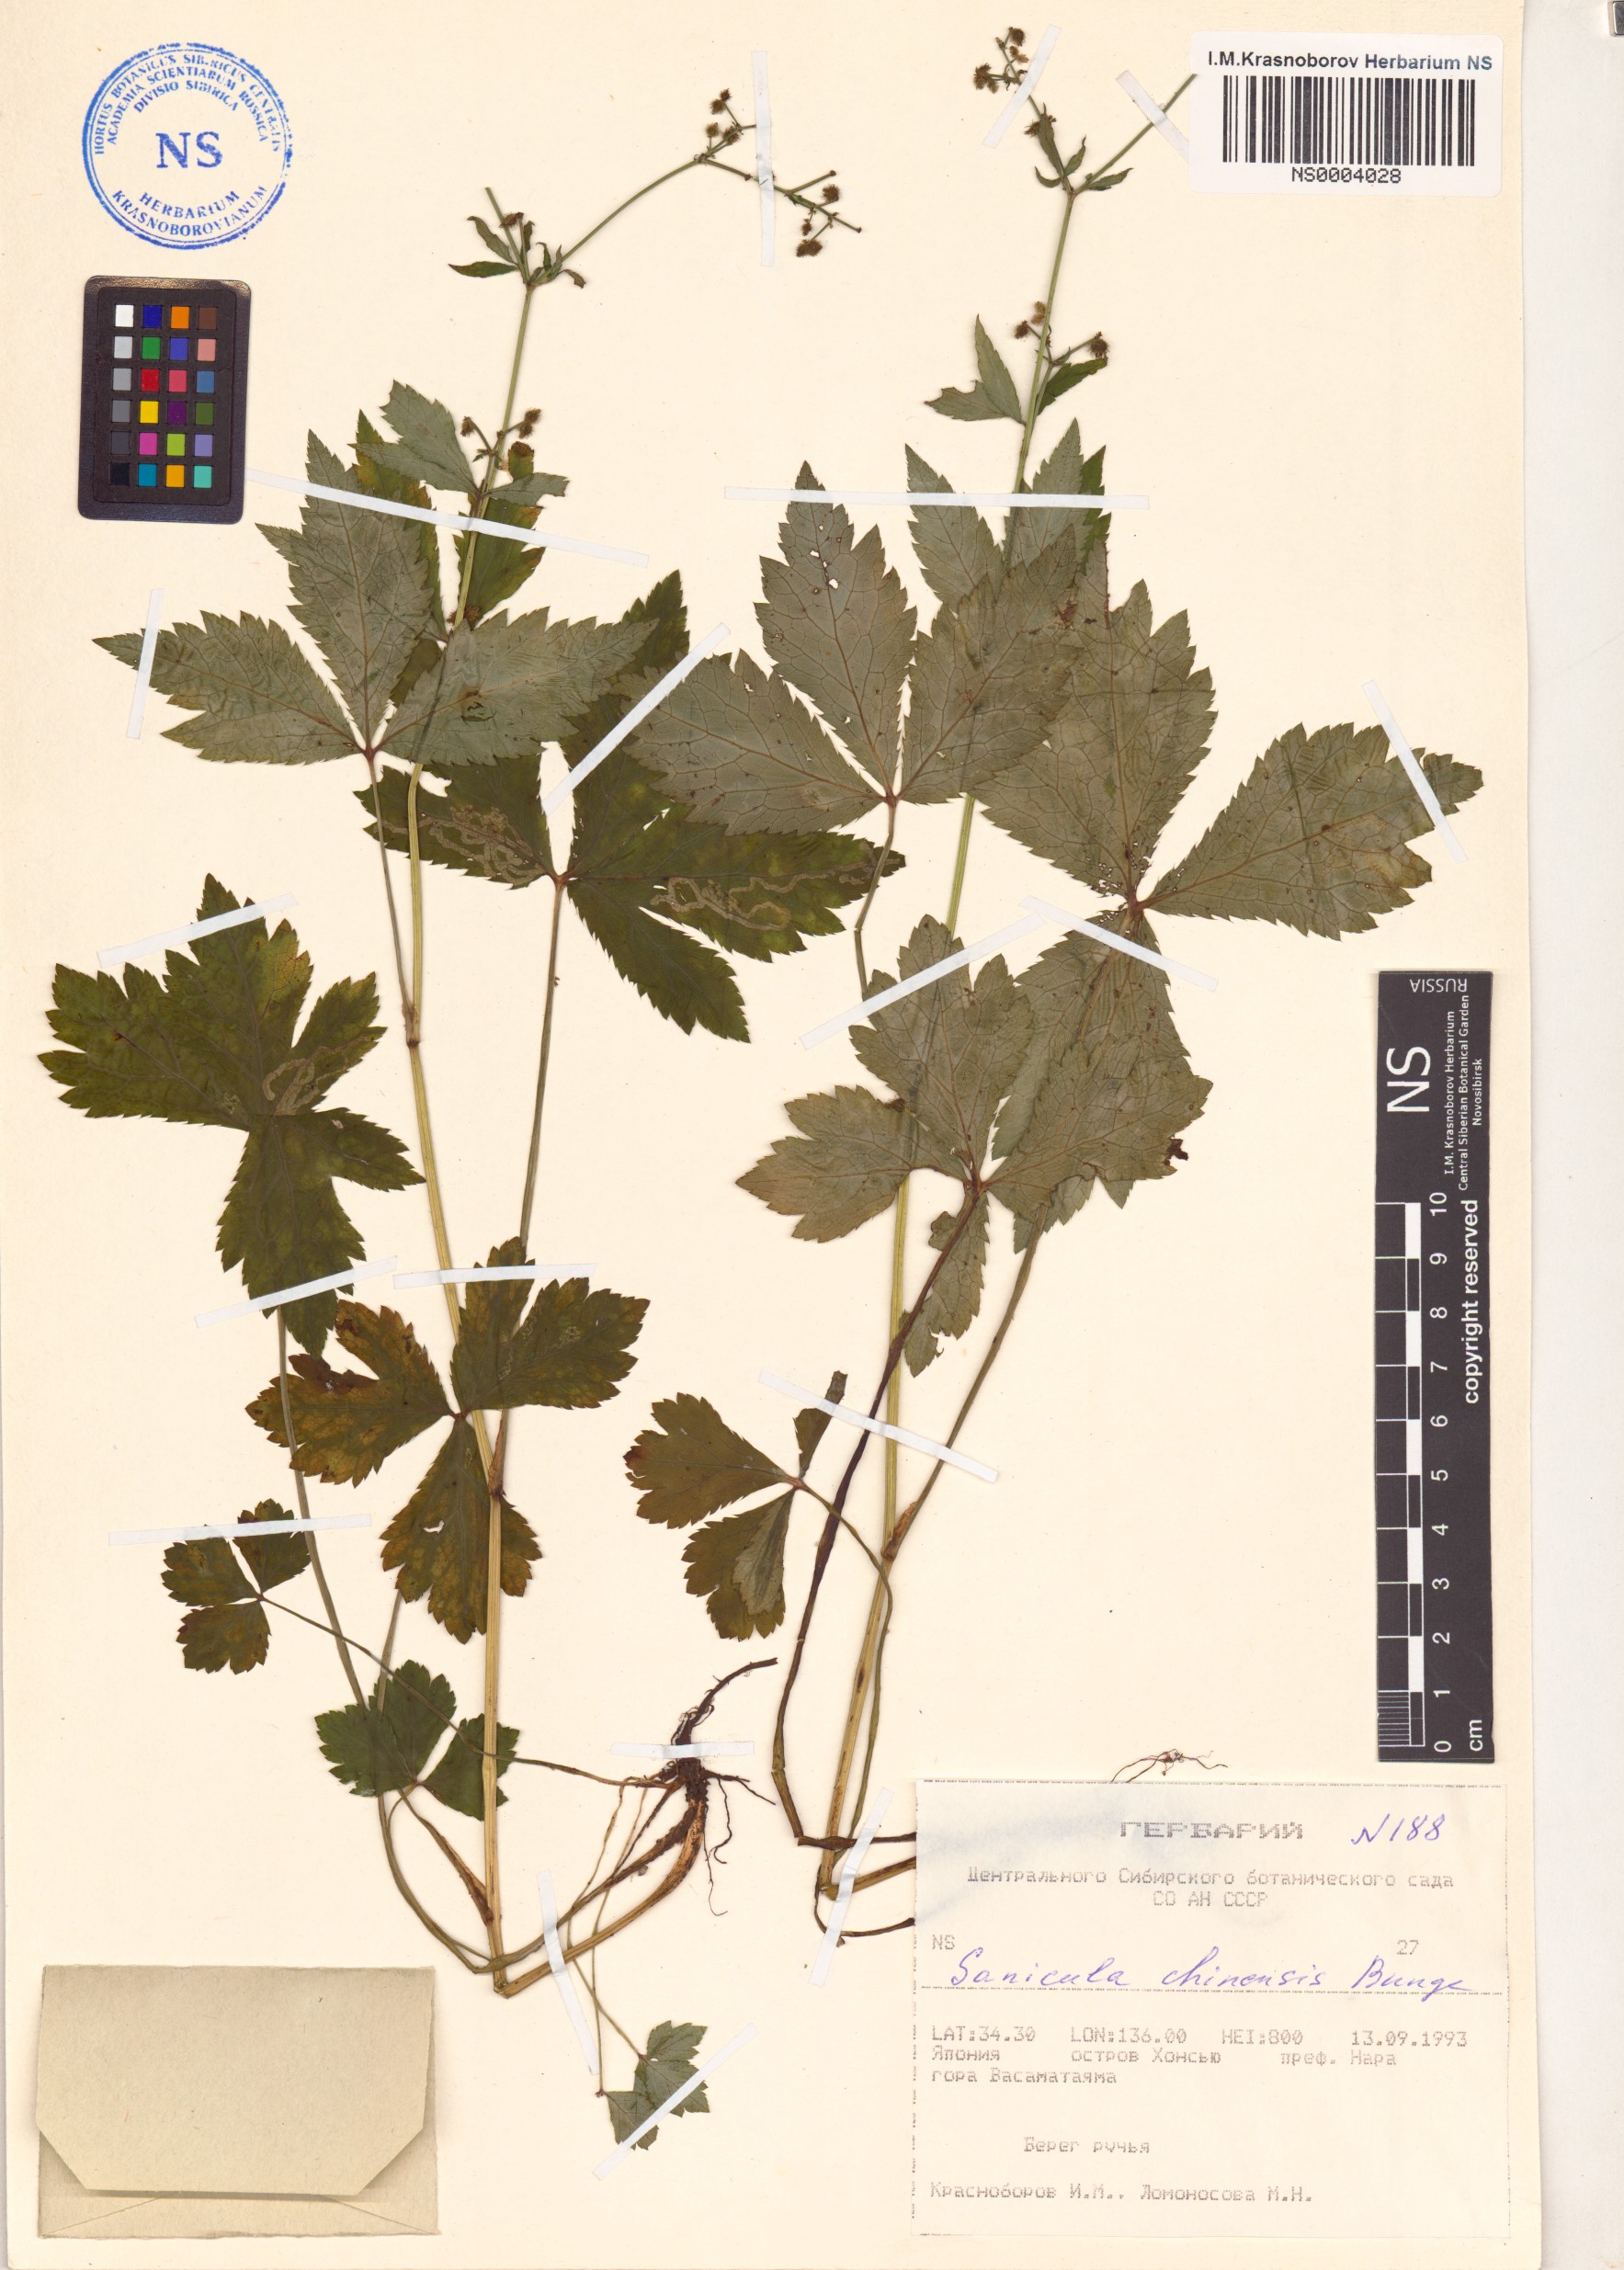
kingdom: Plantae
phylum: Tracheophyta
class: Magnoliopsida
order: Apiales
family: Apiaceae
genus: Sanicula
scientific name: Sanicula chinensis
